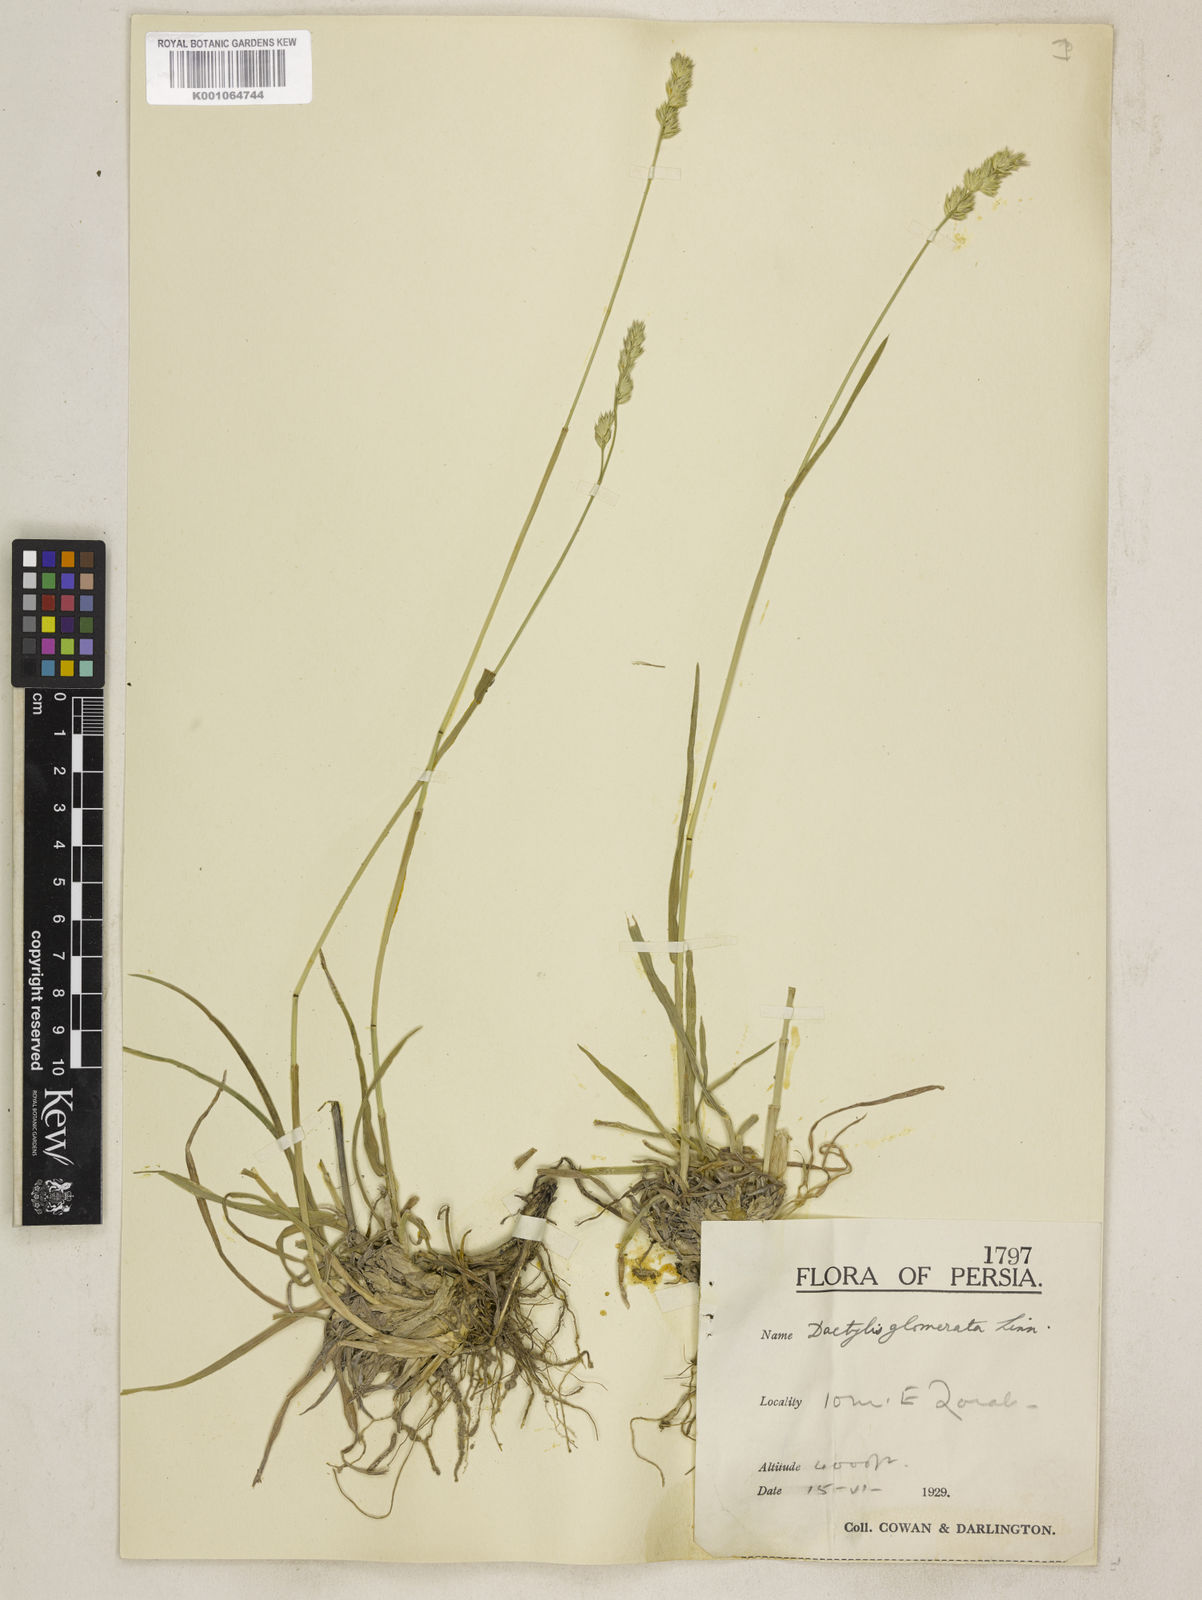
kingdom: Plantae
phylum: Tracheophyta
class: Liliopsida
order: Poales
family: Poaceae
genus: Dactylis
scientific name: Dactylis glomerata
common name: Orchardgrass
